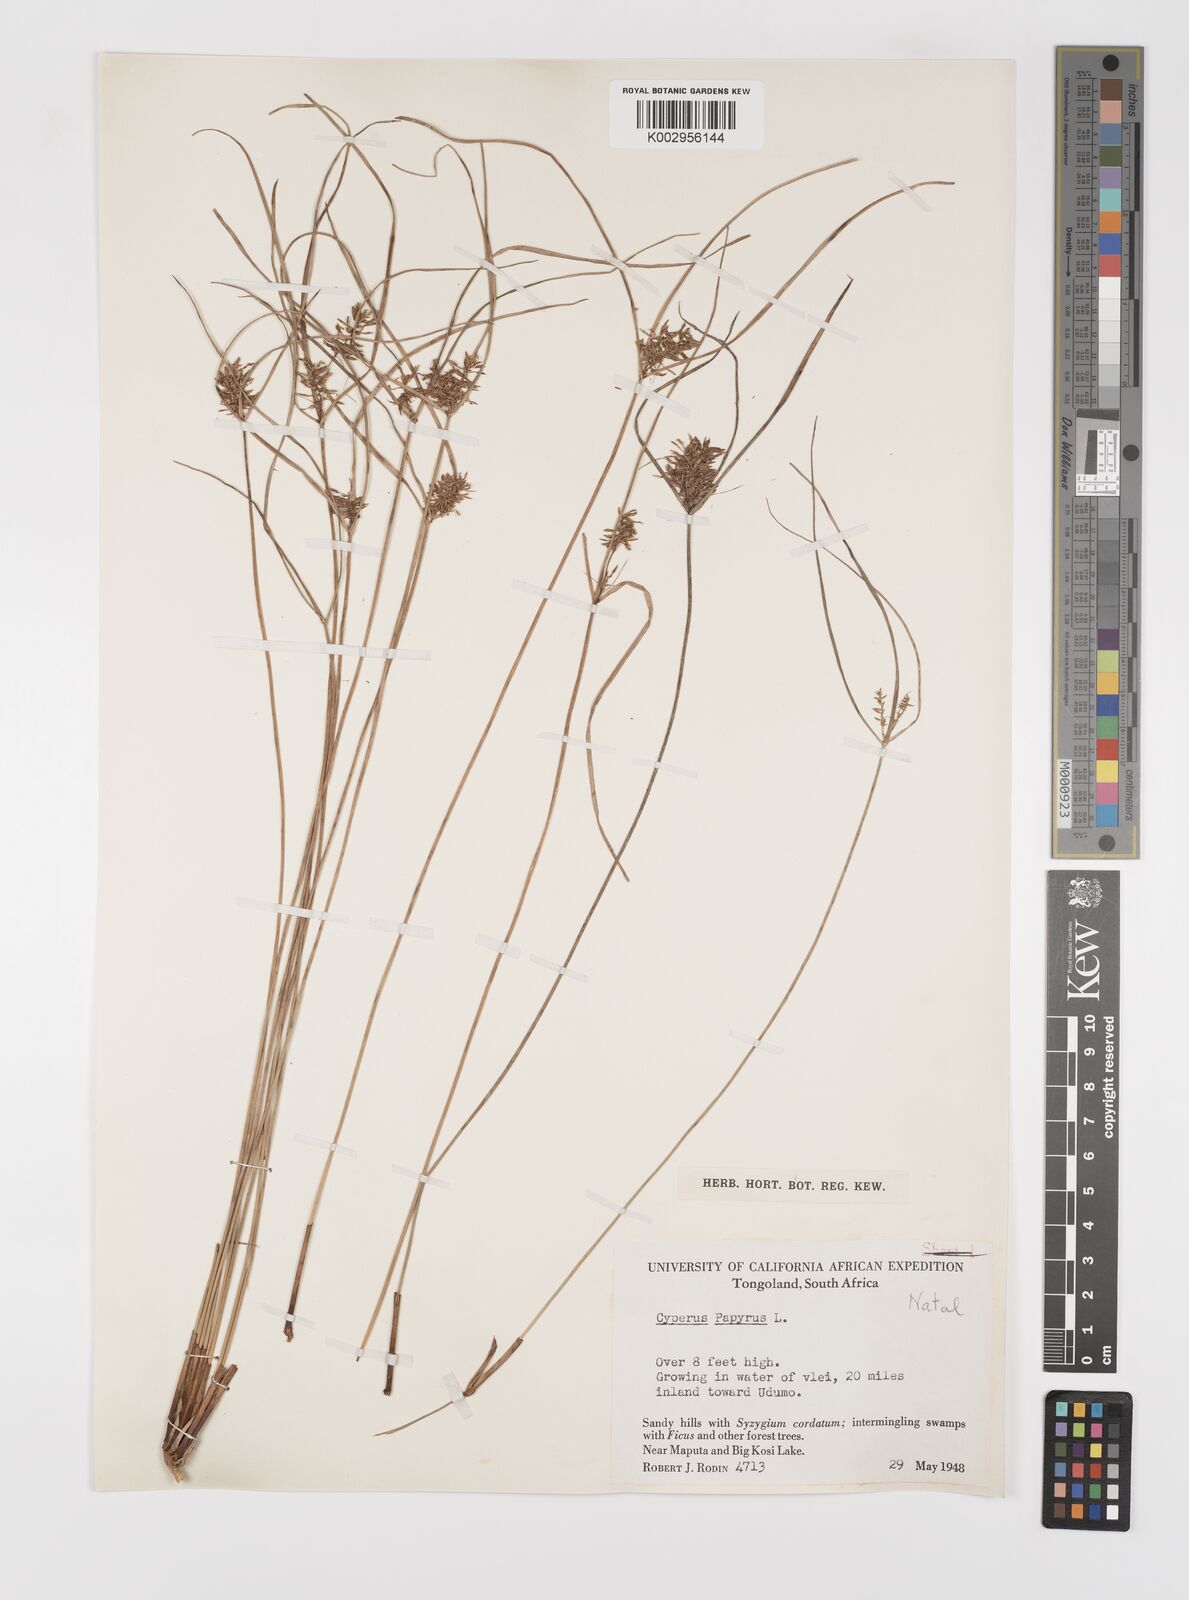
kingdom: Plantae
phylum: Tracheophyta
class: Liliopsida
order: Poales
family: Cyperaceae
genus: Cyperus
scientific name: Cyperus papyrus
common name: Papyrus
